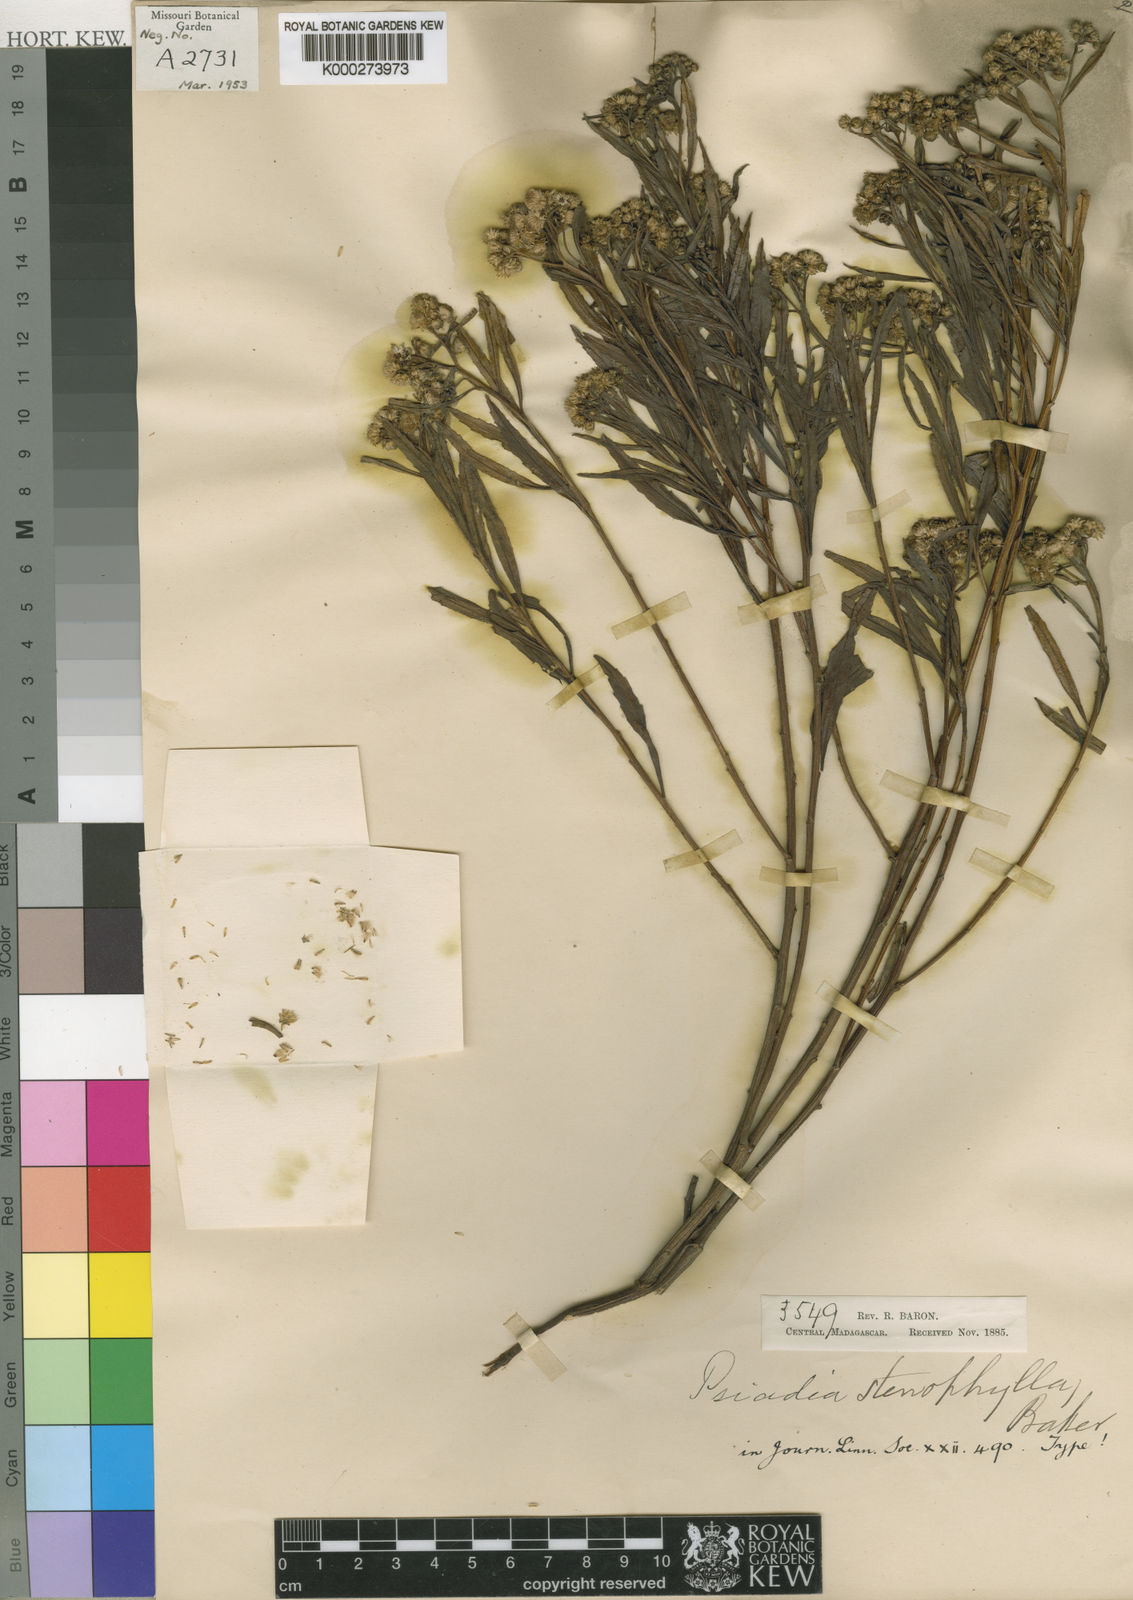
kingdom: Plantae
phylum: Tracheophyta
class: Magnoliopsida
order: Asterales
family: Asteraceae
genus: Psiadia
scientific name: Psiadia altissima
